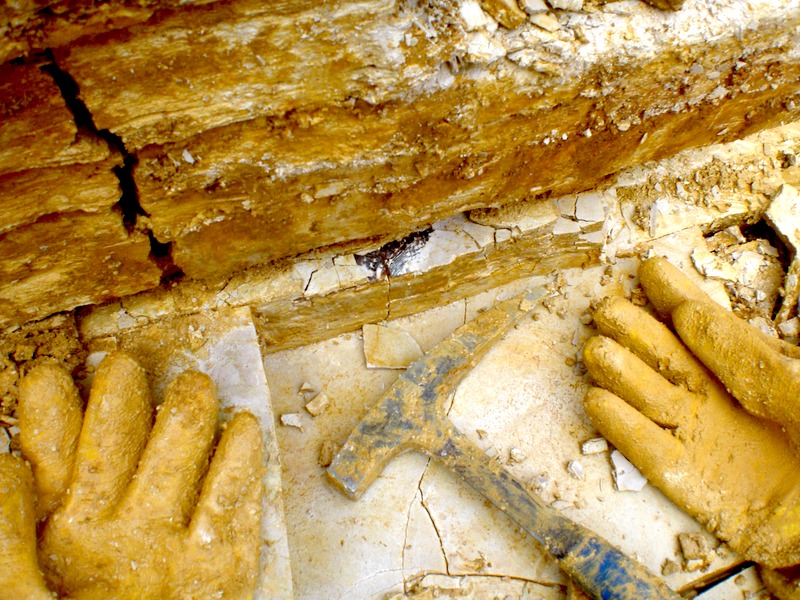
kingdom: Animalia
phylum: Chordata
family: Callipurbeckiidae
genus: Macrosemimimus
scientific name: Macrosemimimus fegerti
